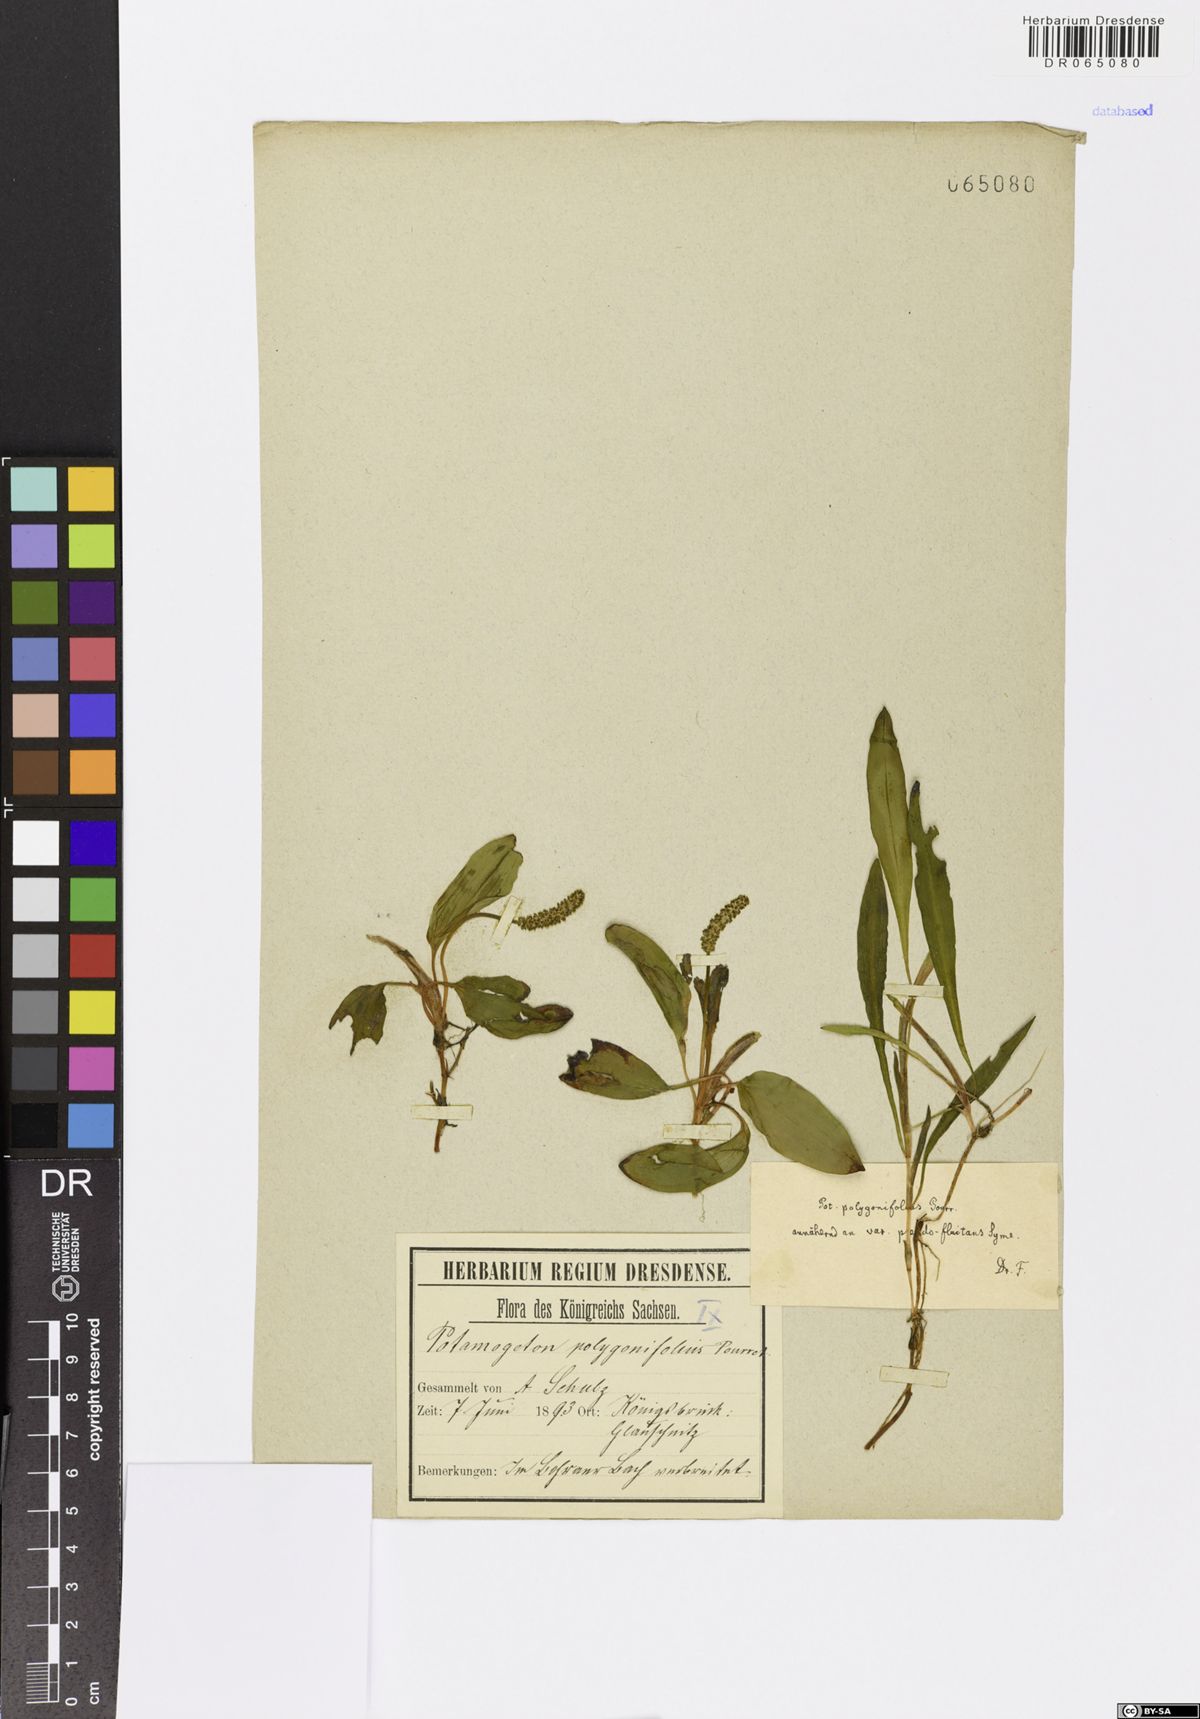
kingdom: Plantae
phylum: Tracheophyta
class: Liliopsida
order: Alismatales
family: Potamogetonaceae
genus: Potamogeton
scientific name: Potamogeton polygonifolius
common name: Bog pondweed
